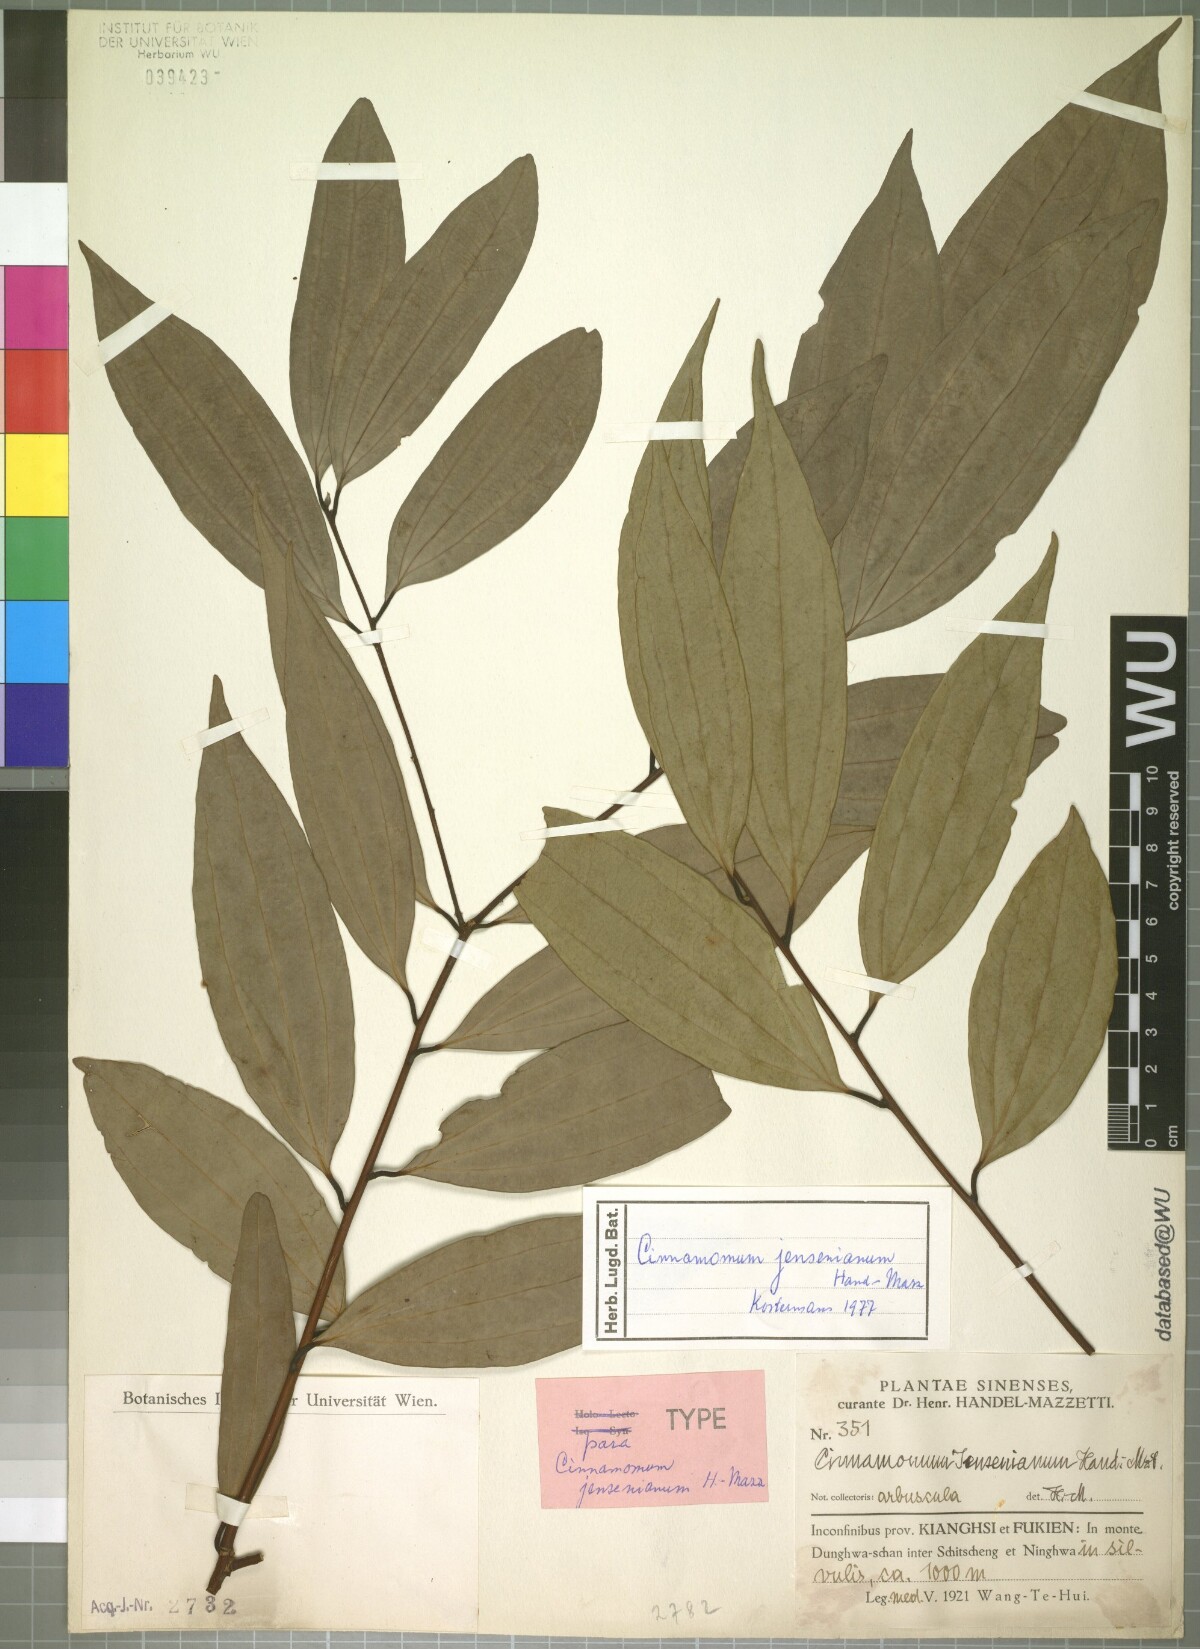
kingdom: Plantae
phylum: Tracheophyta
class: Magnoliopsida
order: Laurales
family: Lauraceae
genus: Cinnamomum
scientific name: Cinnamomum jensenianum
